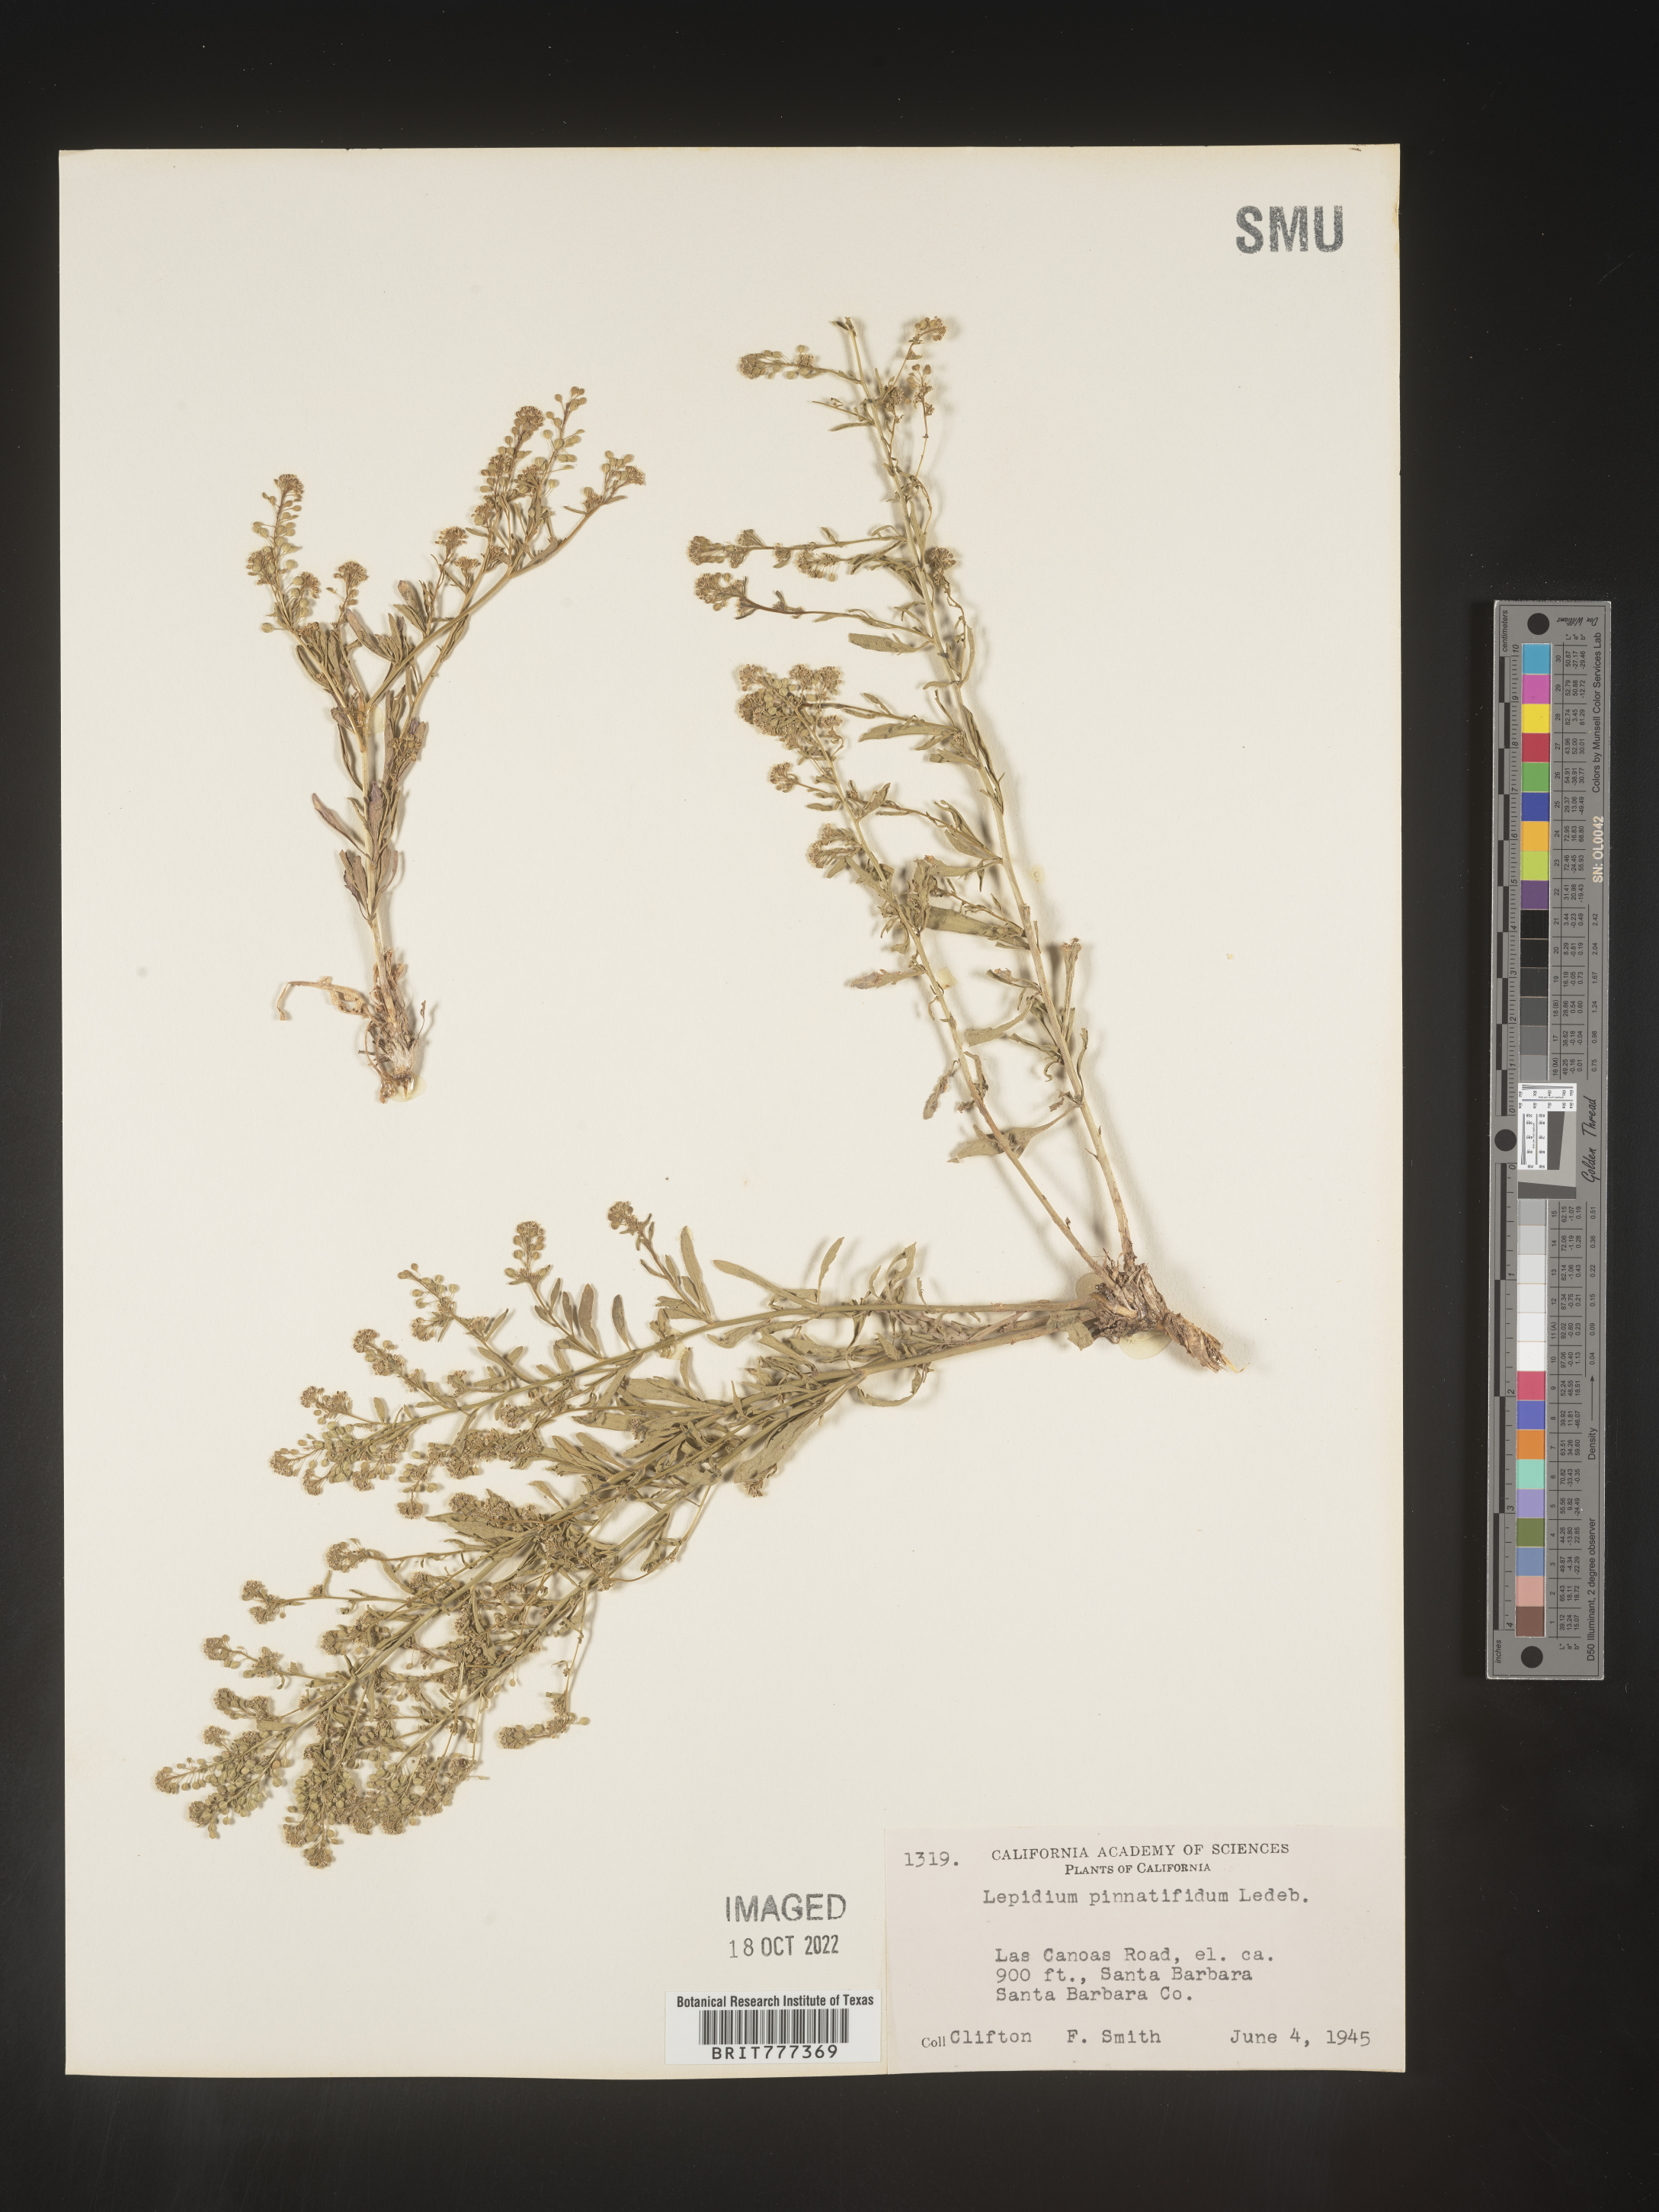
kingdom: Plantae
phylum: Tracheophyta
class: Magnoliopsida
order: Brassicales
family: Brassicaceae
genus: Lepidium
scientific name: Lepidium
